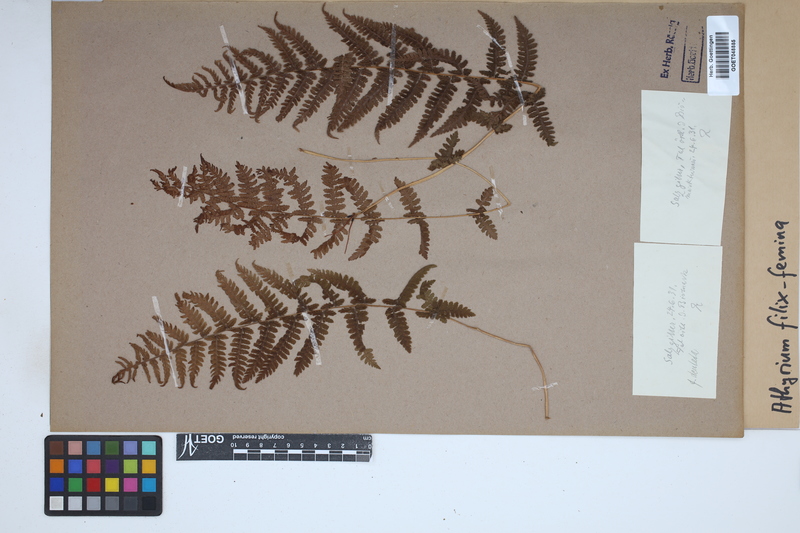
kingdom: Plantae
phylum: Tracheophyta
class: Polypodiopsida
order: Polypodiales
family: Athyriaceae
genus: Athyrium
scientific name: Athyrium filix-femina
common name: Lady fern
